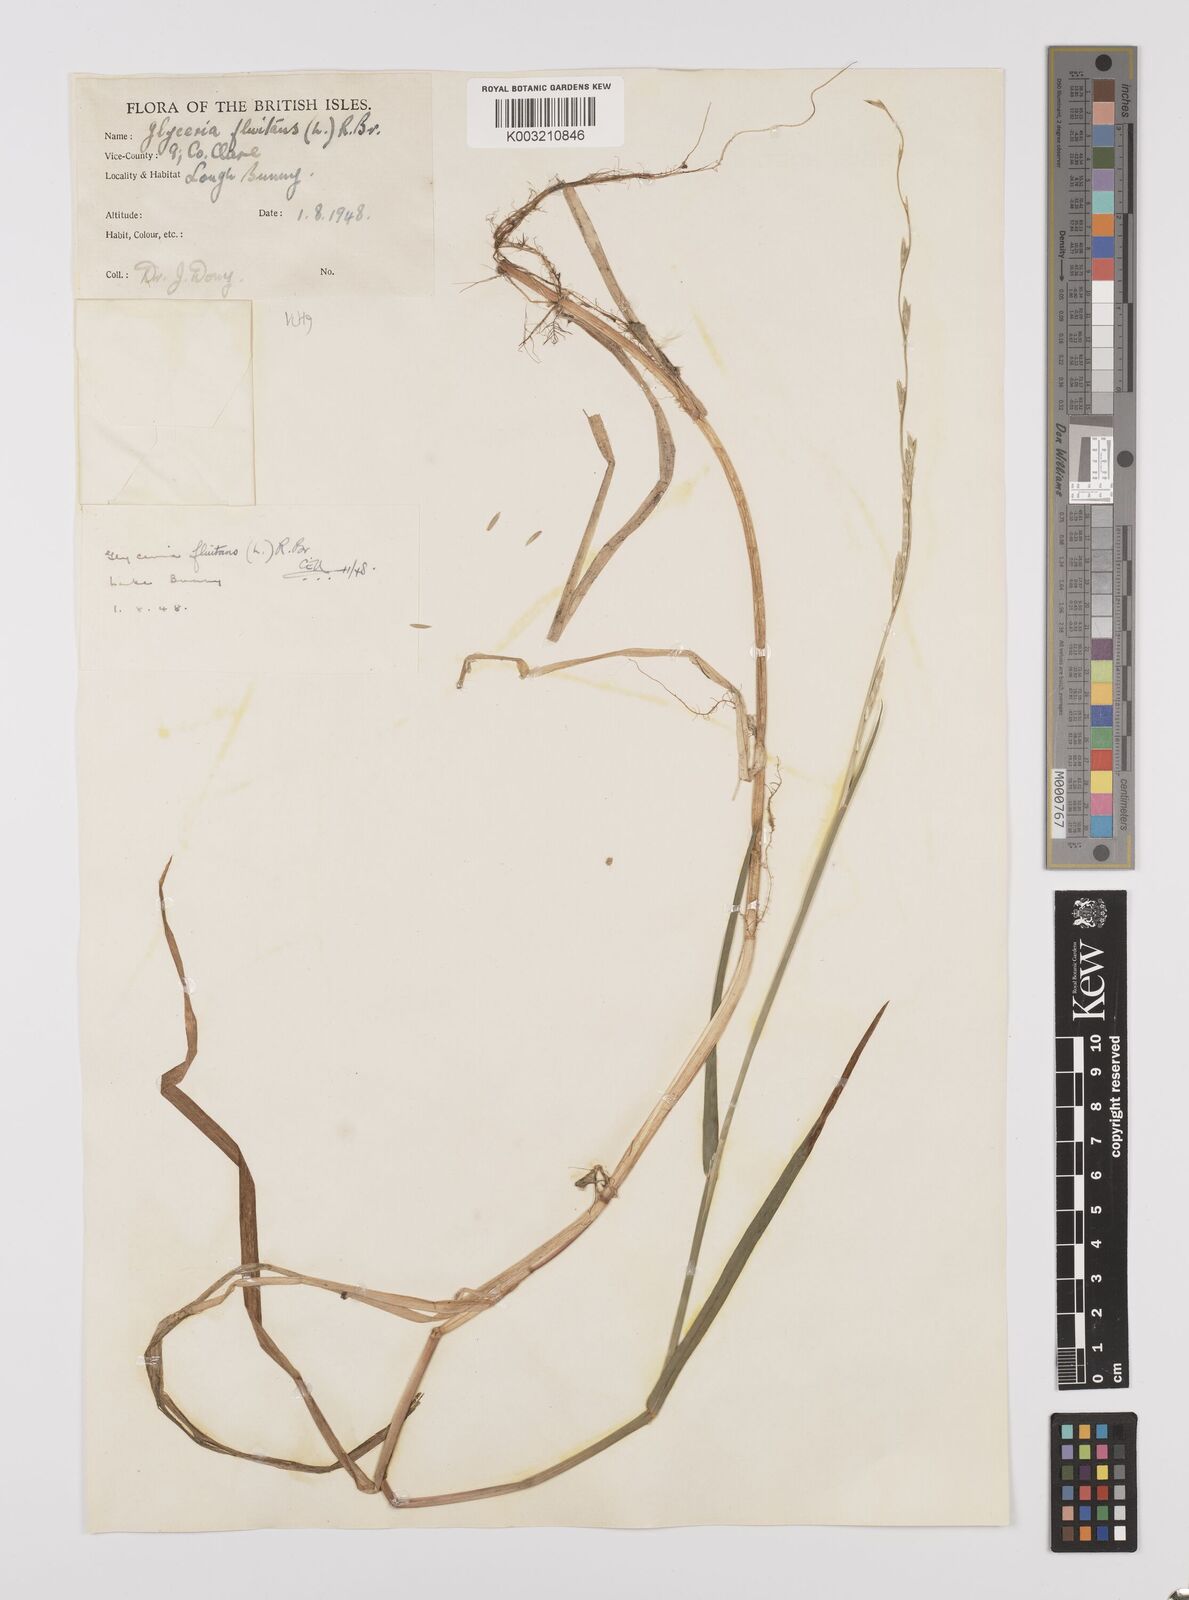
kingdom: Plantae
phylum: Tracheophyta
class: Liliopsida
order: Poales
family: Poaceae
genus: Glyceria
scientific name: Glyceria fluitans
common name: Floating sweet-grass
